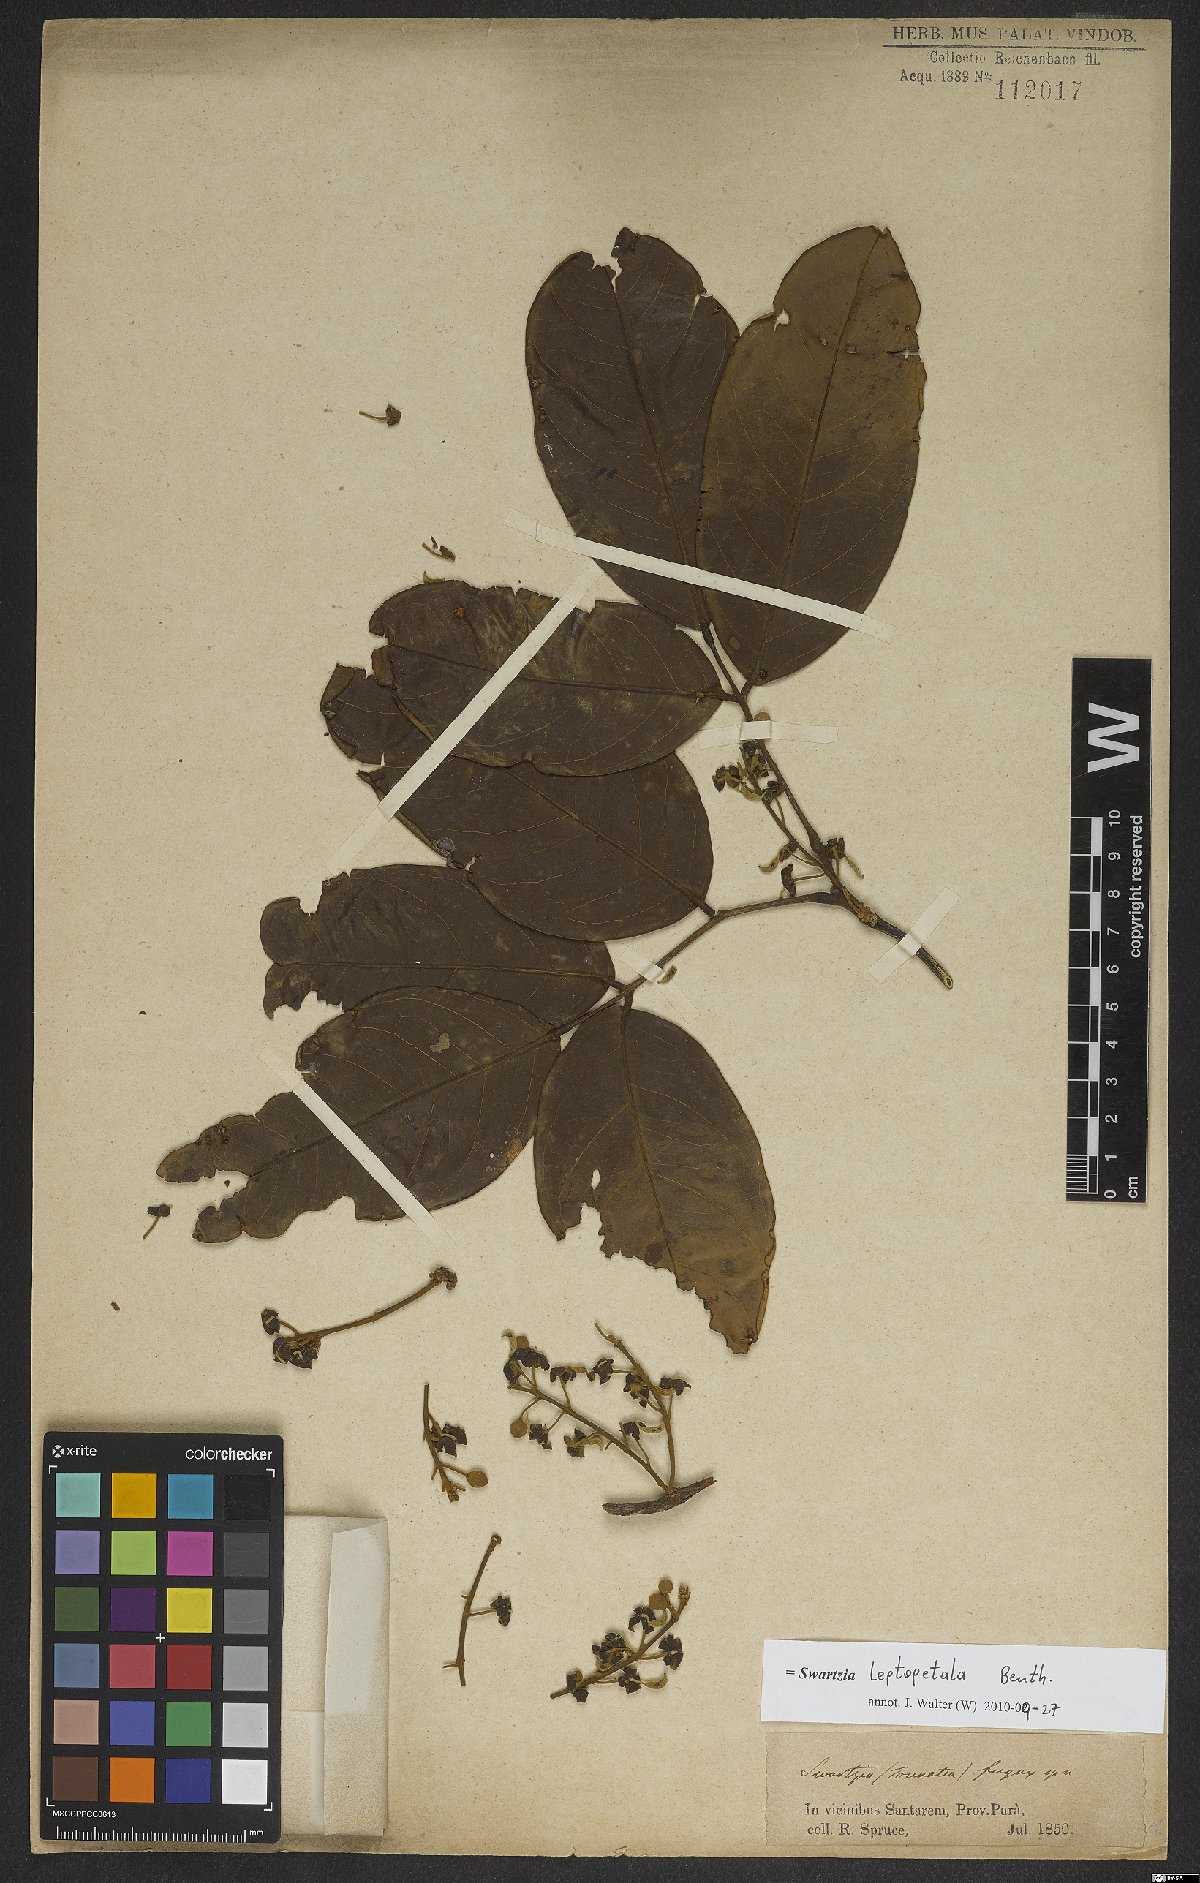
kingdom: Plantae
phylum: Tracheophyta
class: Magnoliopsida
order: Fabales
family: Fabaceae
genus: Swartzia
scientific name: Swartzia leptopetala
